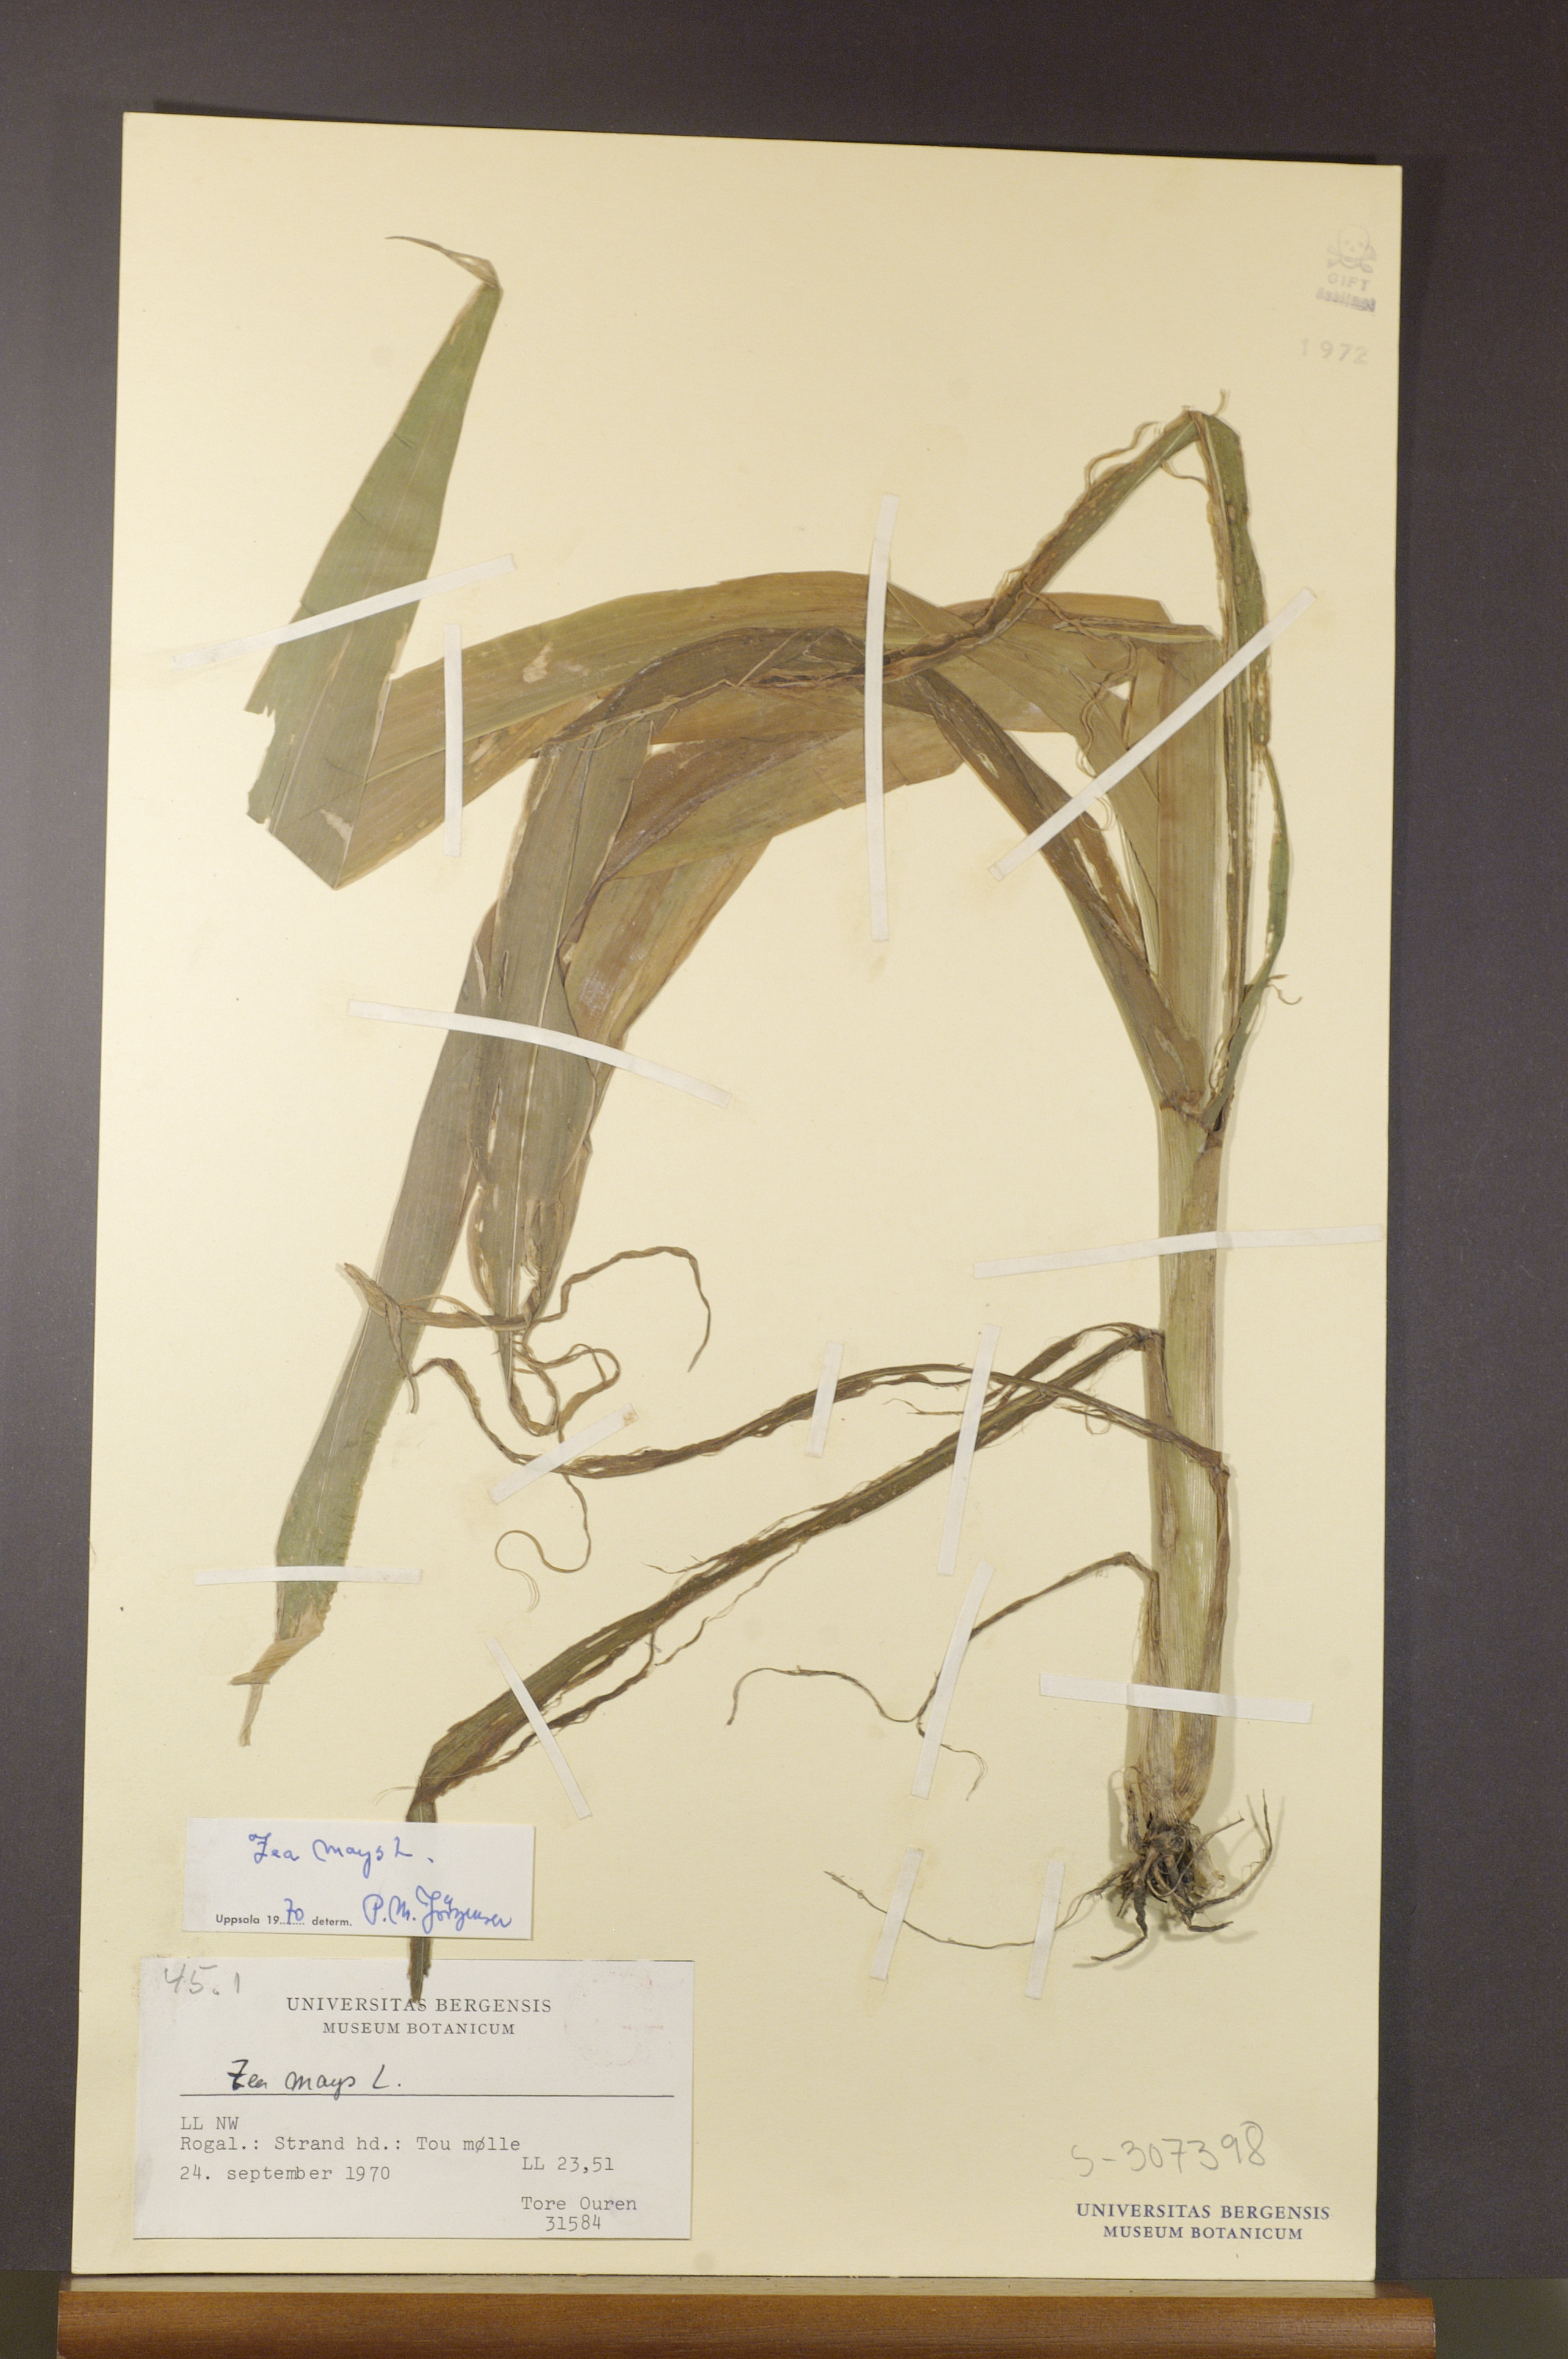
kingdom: Plantae
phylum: Tracheophyta
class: Liliopsida
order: Poales
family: Poaceae
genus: Zea
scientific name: Zea mays
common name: Maize
